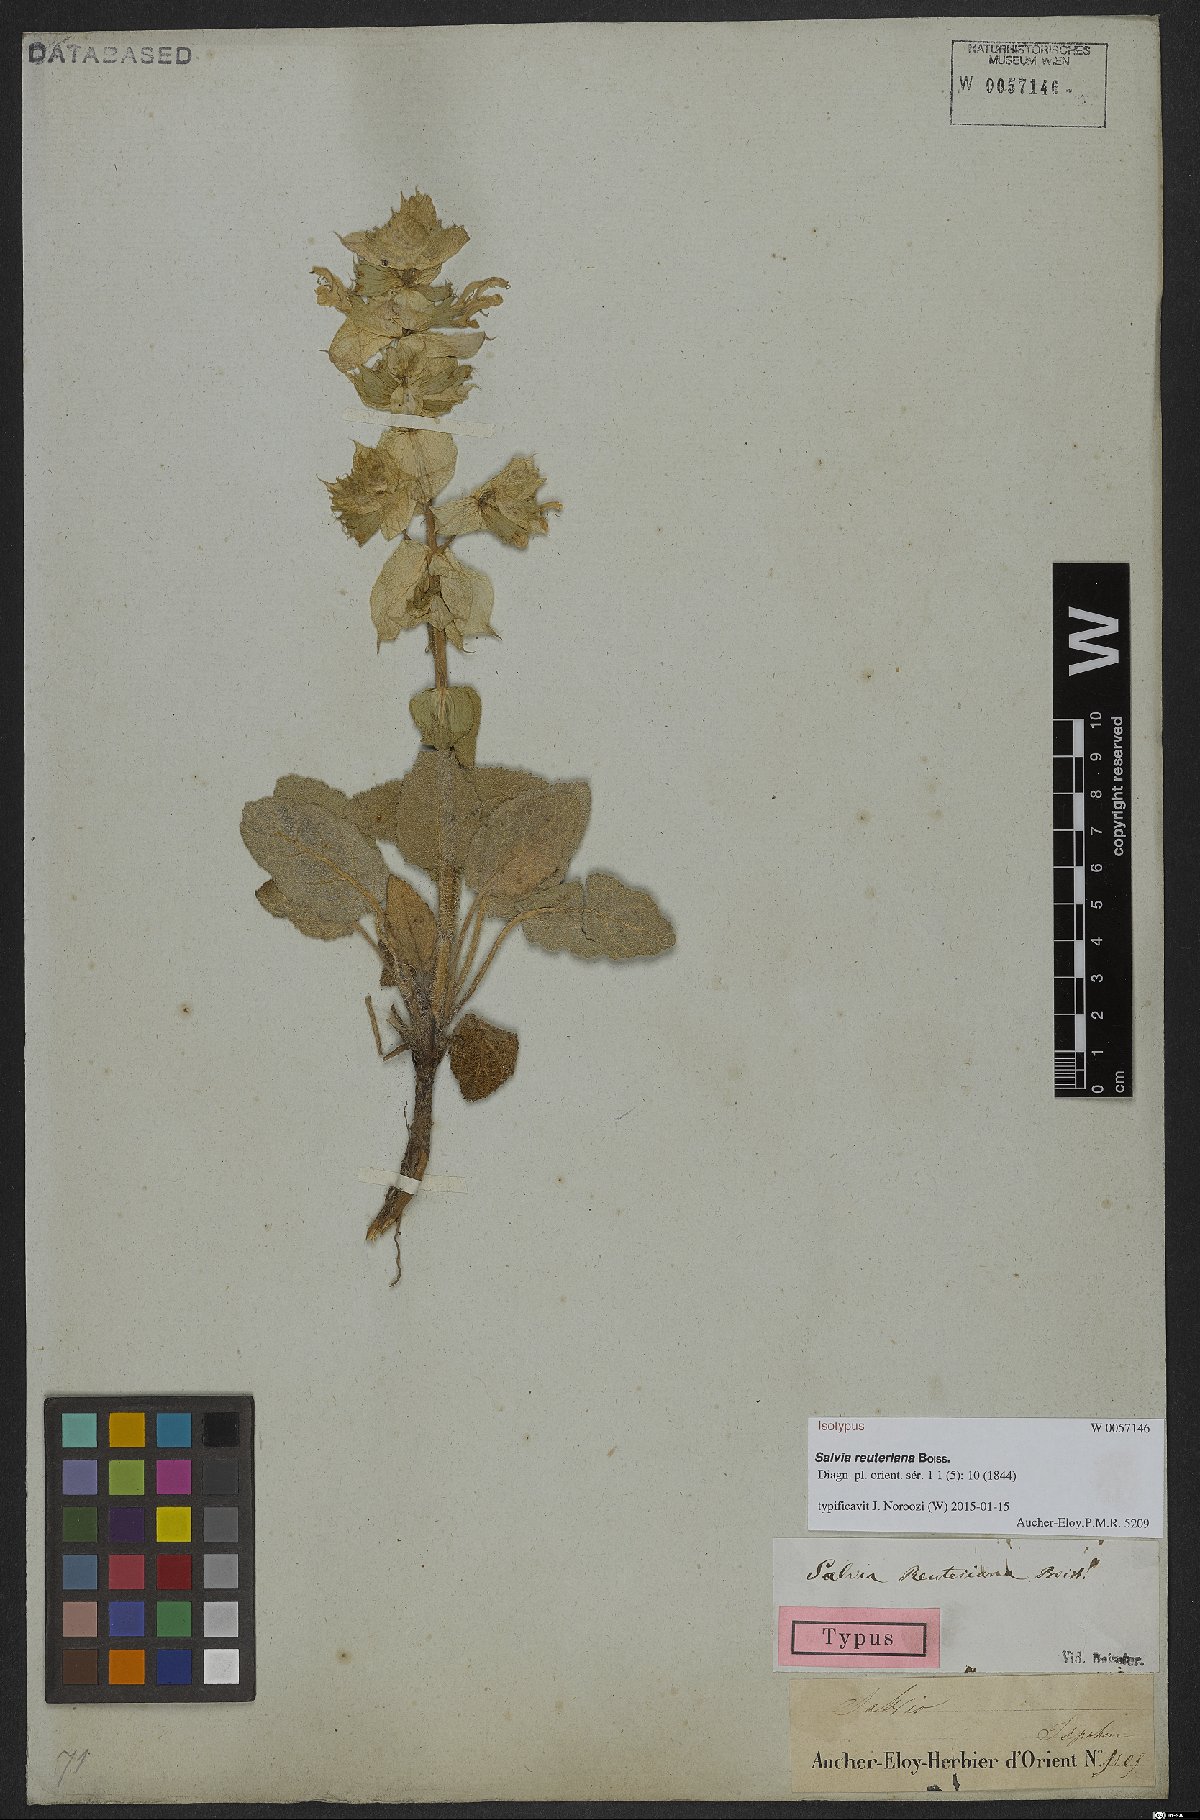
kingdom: Plantae
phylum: Tracheophyta
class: Magnoliopsida
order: Lamiales
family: Lamiaceae
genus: Salvia
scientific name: Salvia reuteriana
